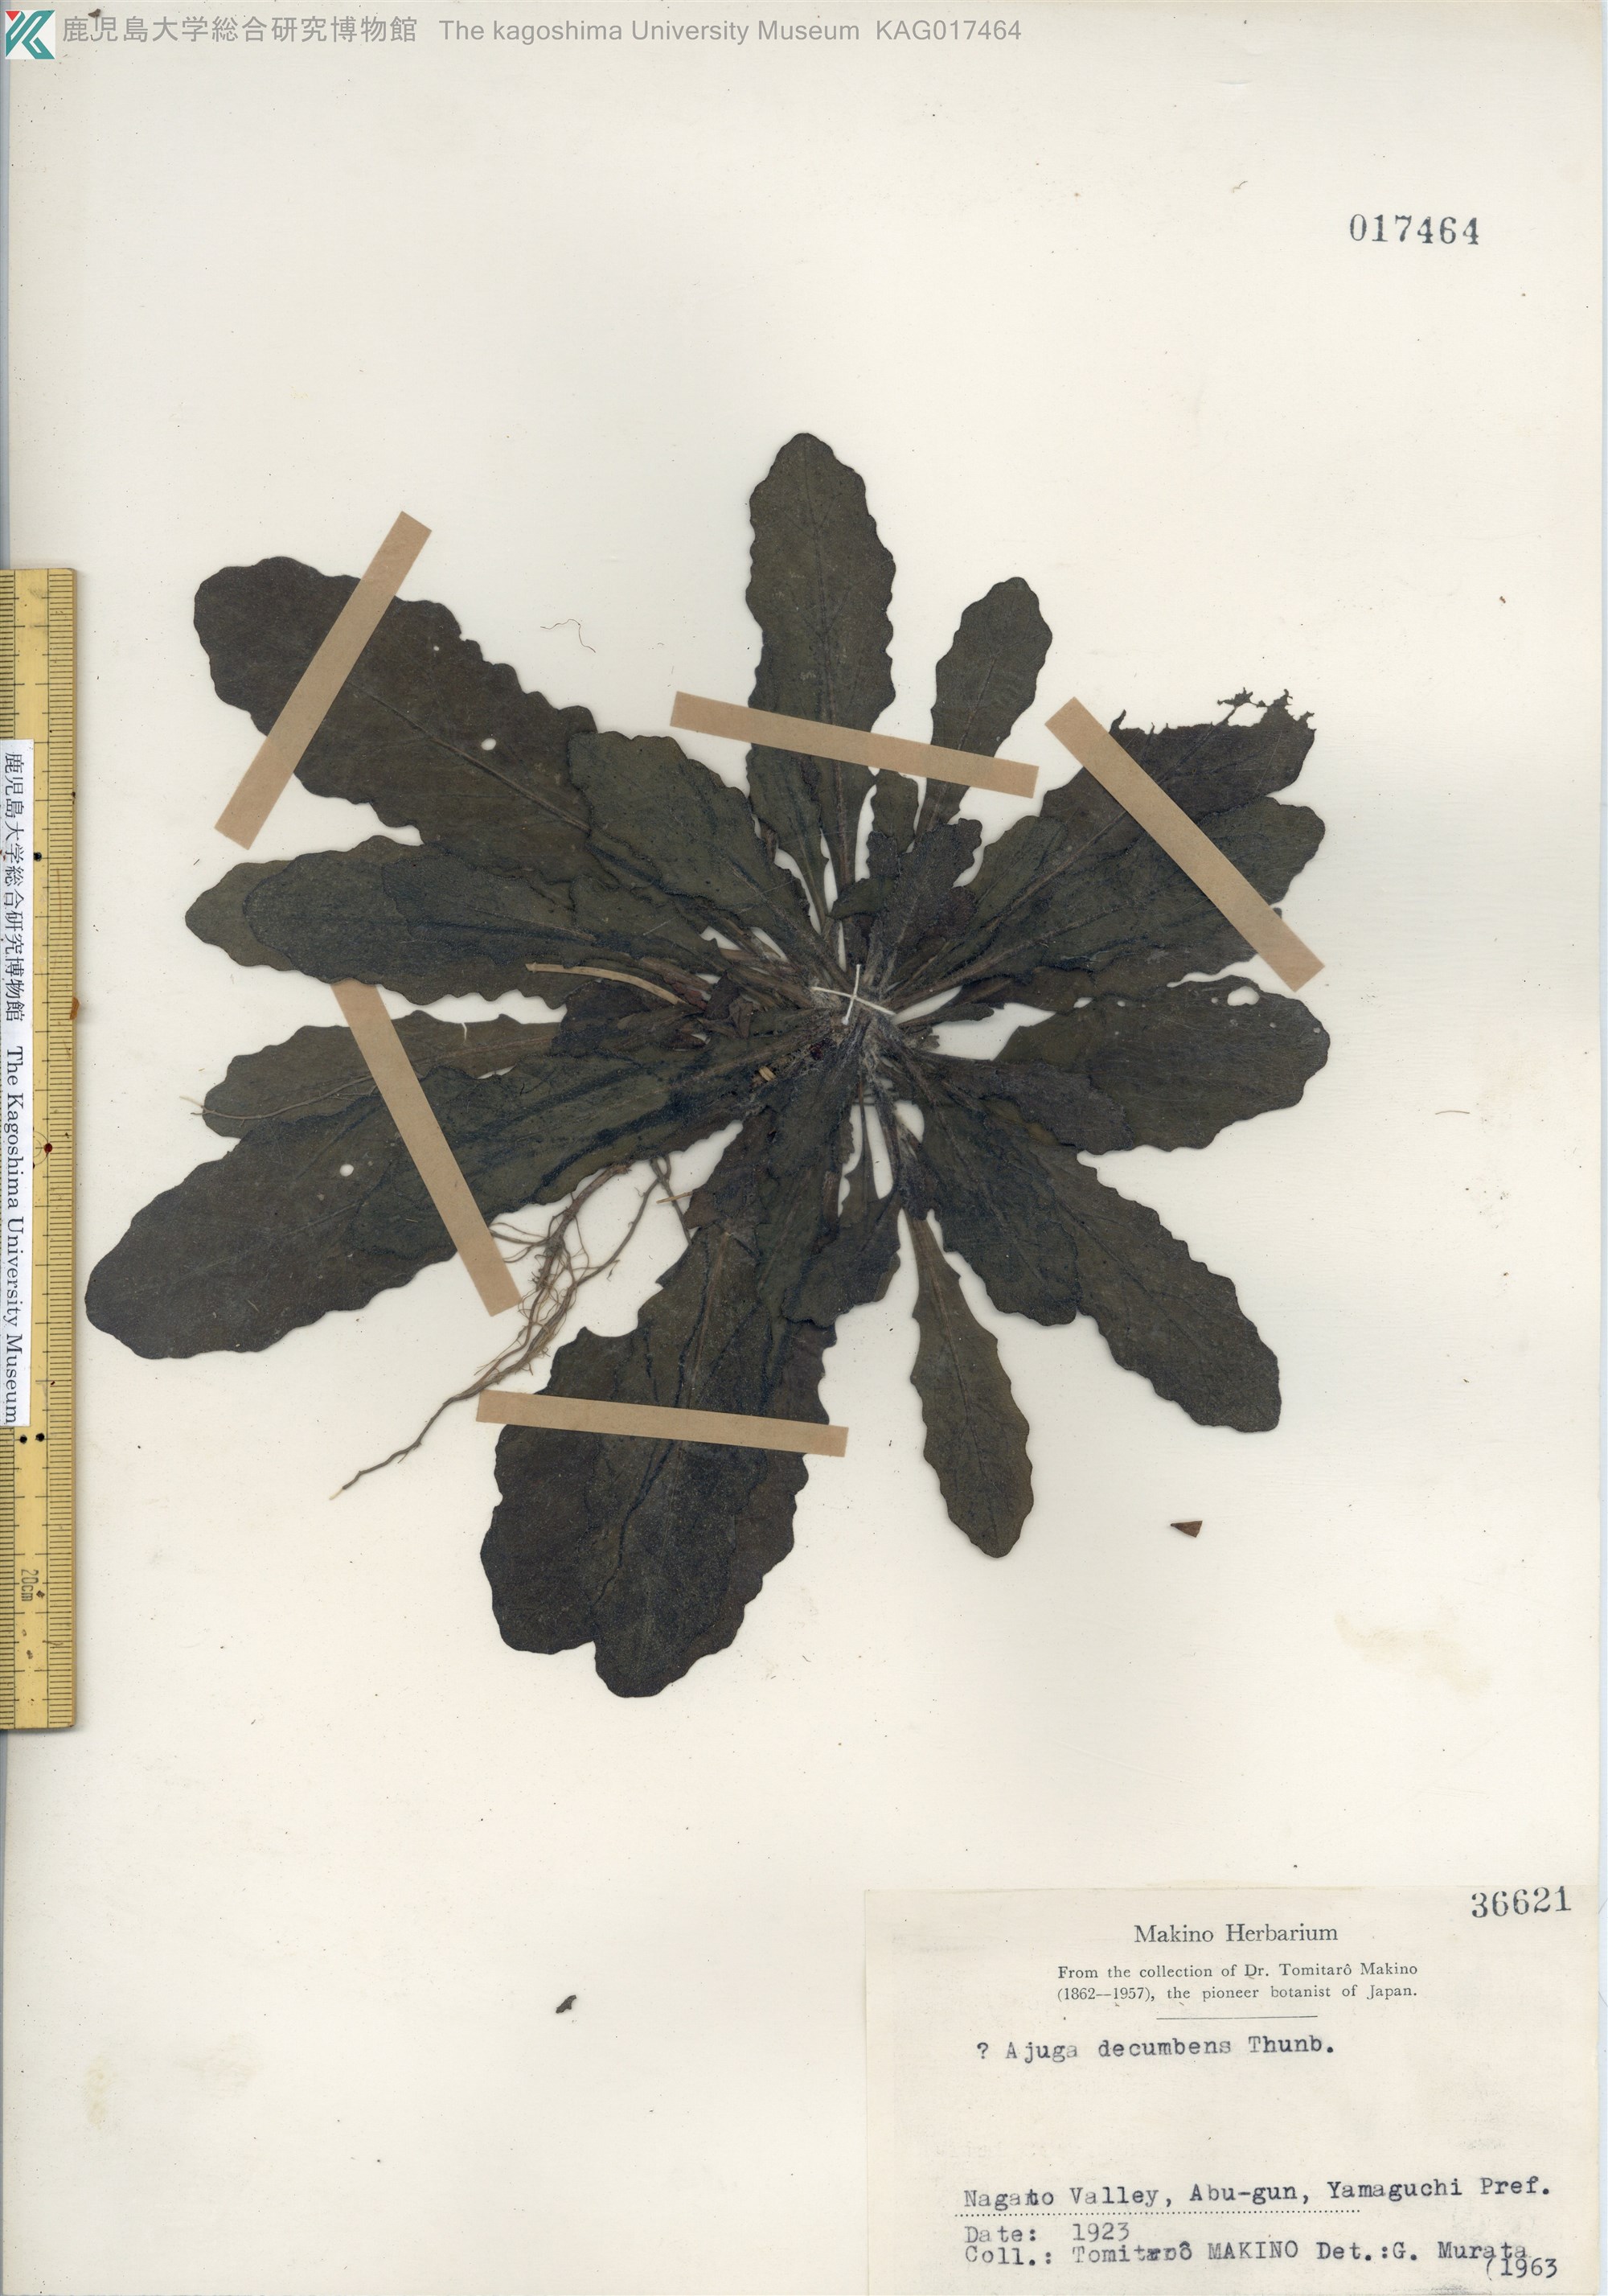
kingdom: Plantae
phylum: Tracheophyta
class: Magnoliopsida
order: Lamiales
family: Lamiaceae
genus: Ajuga
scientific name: Ajuga decumbens
